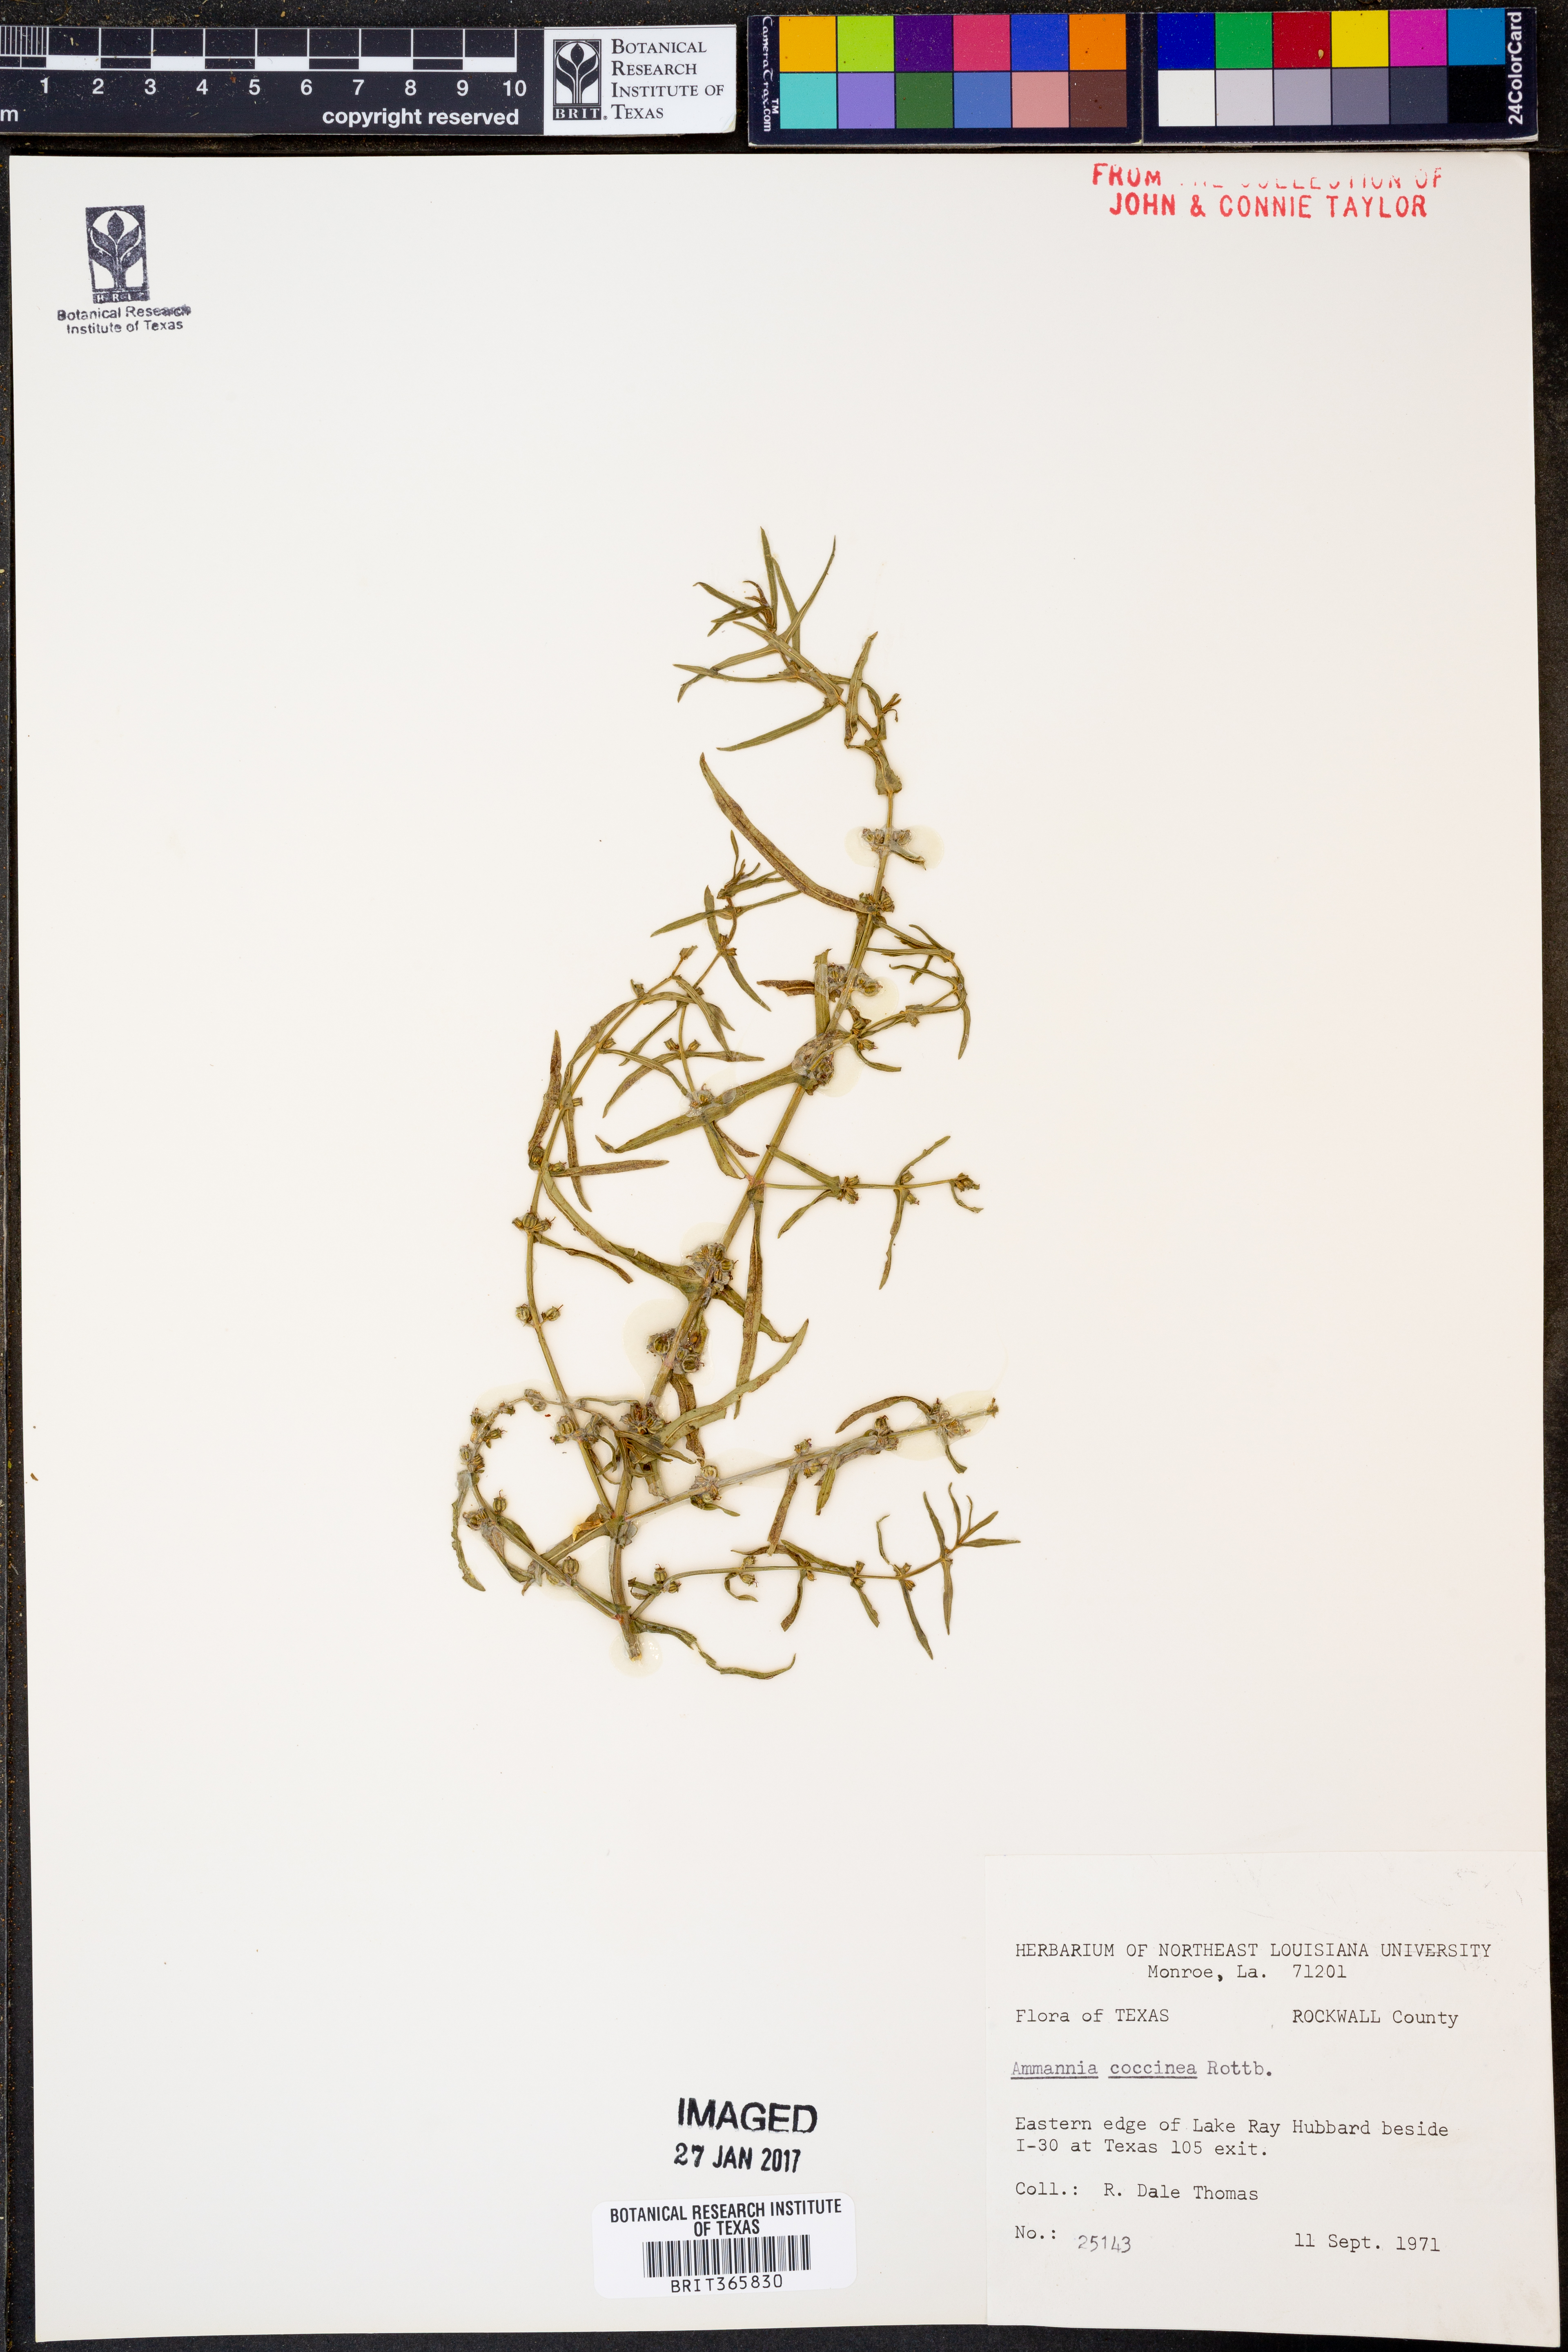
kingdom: Plantae
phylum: Tracheophyta
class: Magnoliopsida
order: Myrtales
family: Lythraceae
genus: Ammannia
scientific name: Ammannia coccinea
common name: Valley redstem
